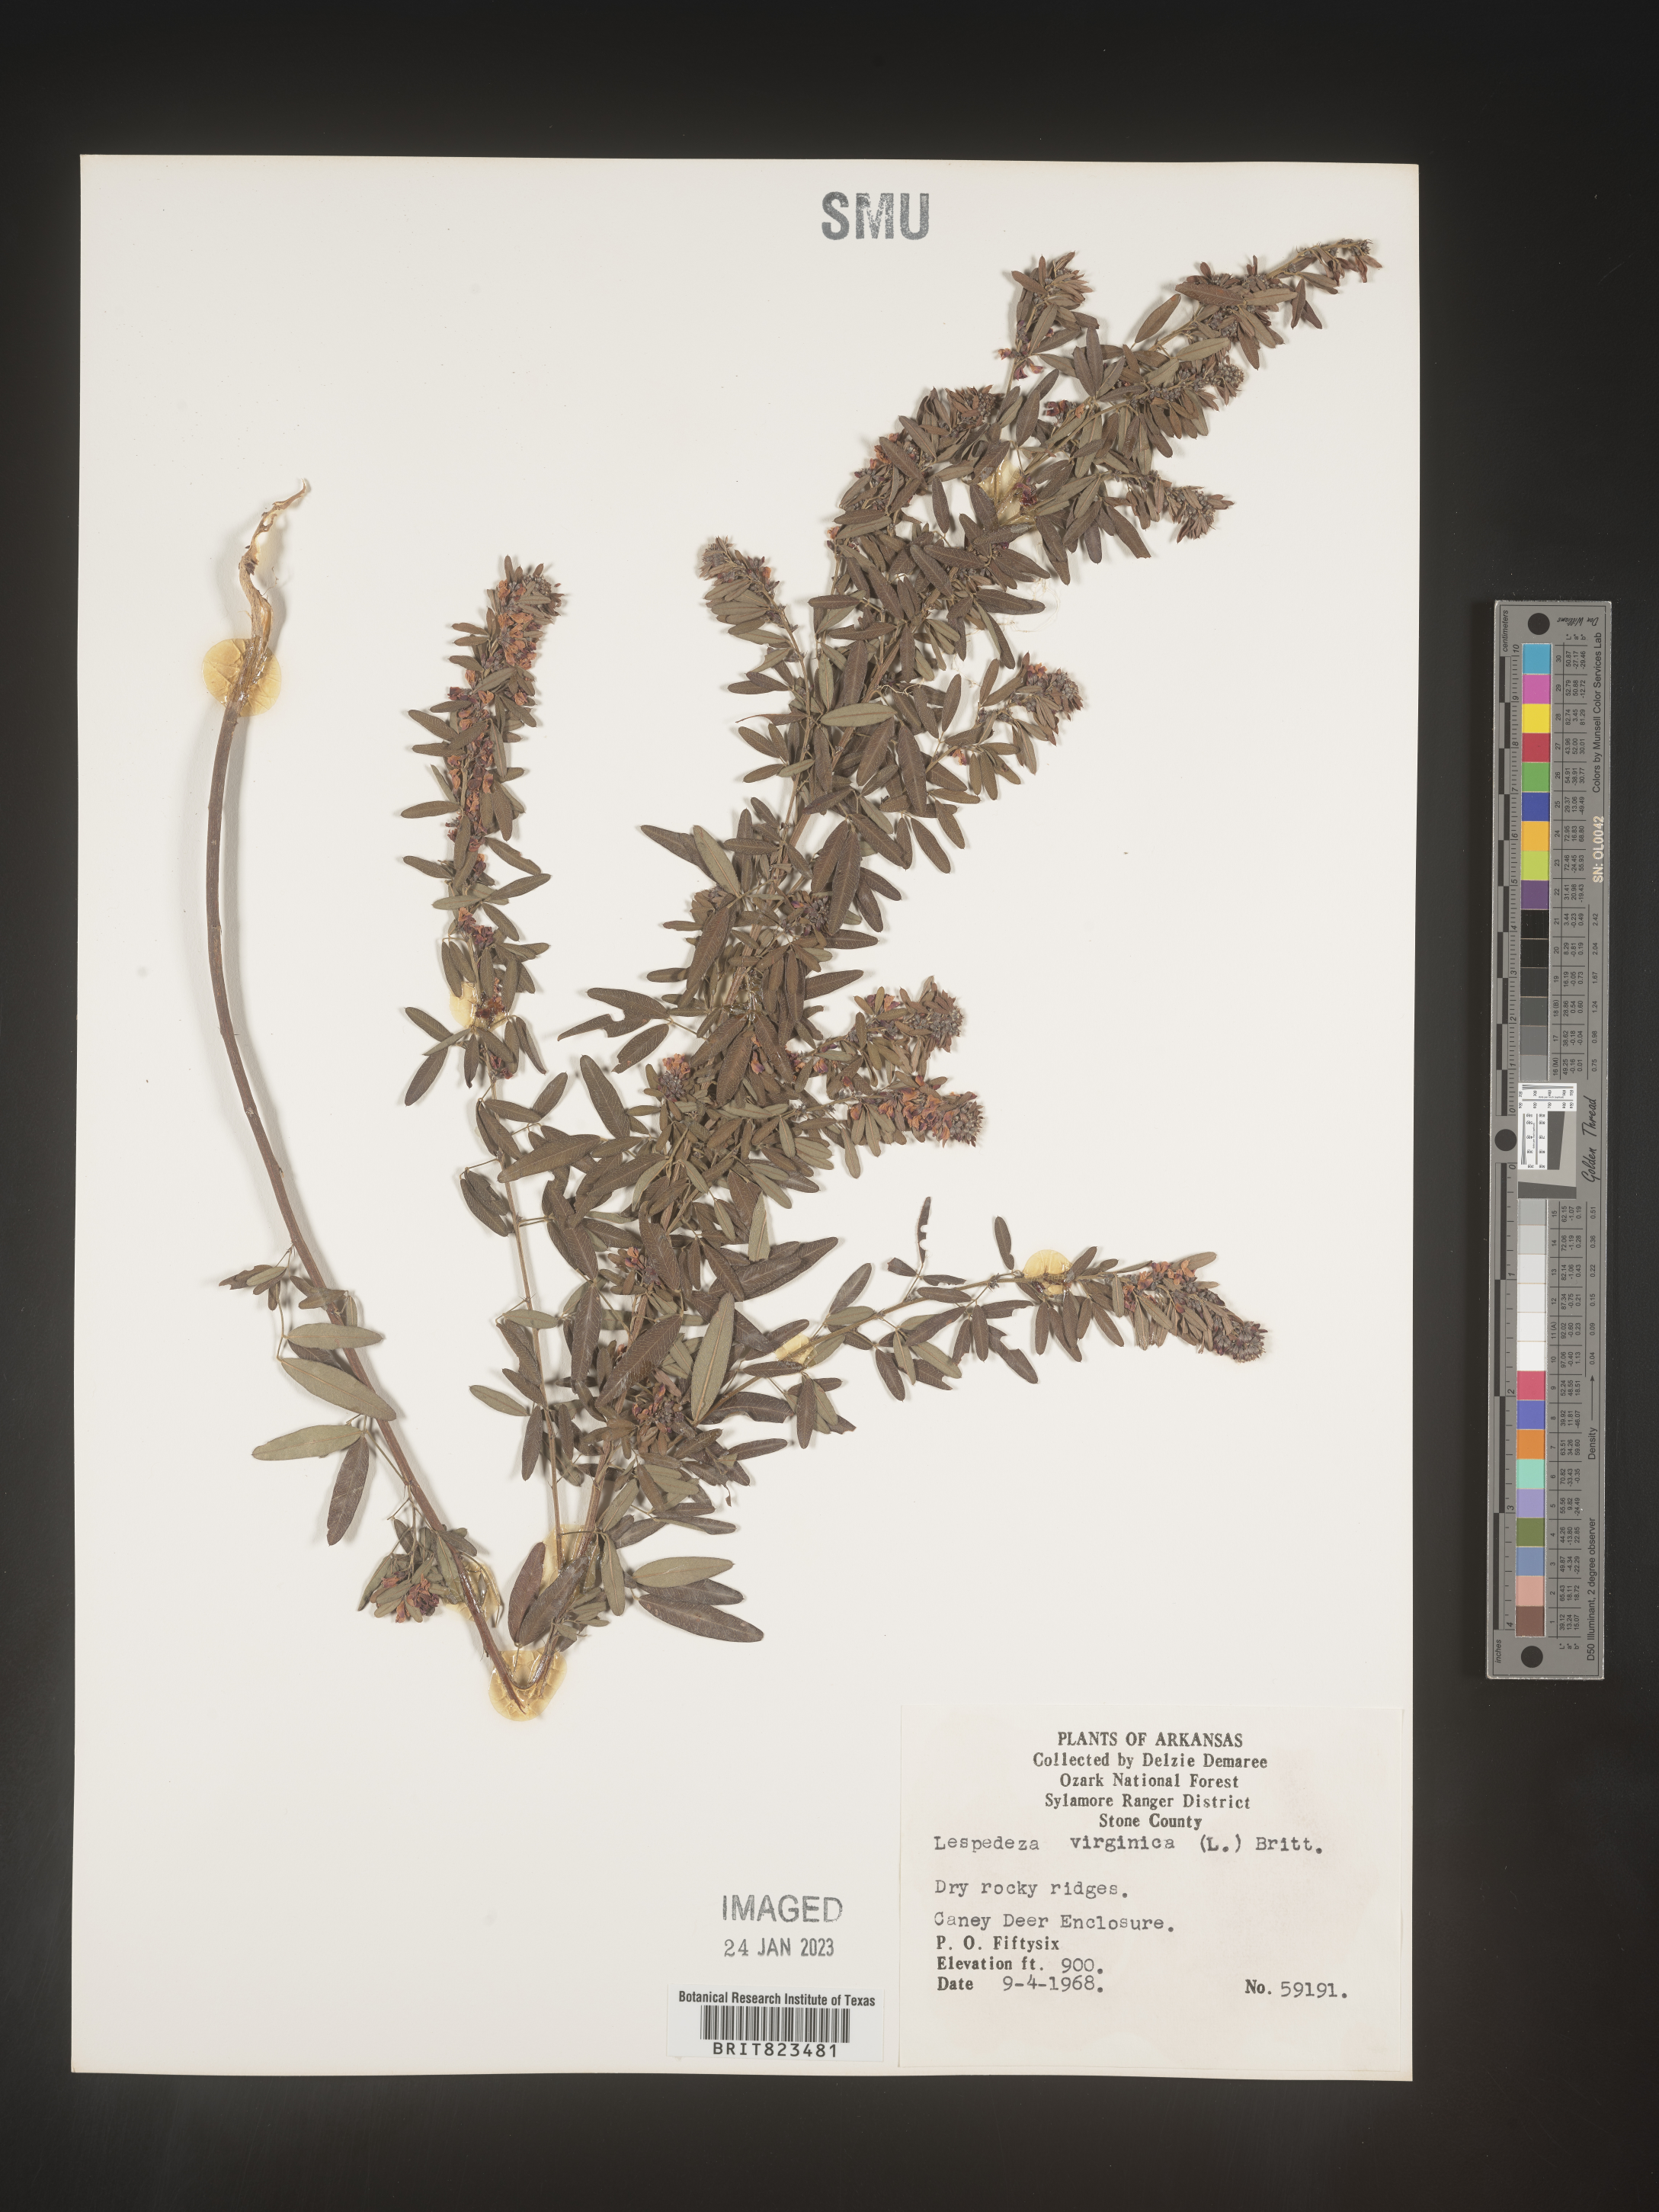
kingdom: Plantae
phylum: Tracheophyta
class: Magnoliopsida
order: Fabales
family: Fabaceae
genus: Lespedeza
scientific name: Lespedeza virginica
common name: Slender bush-clover
